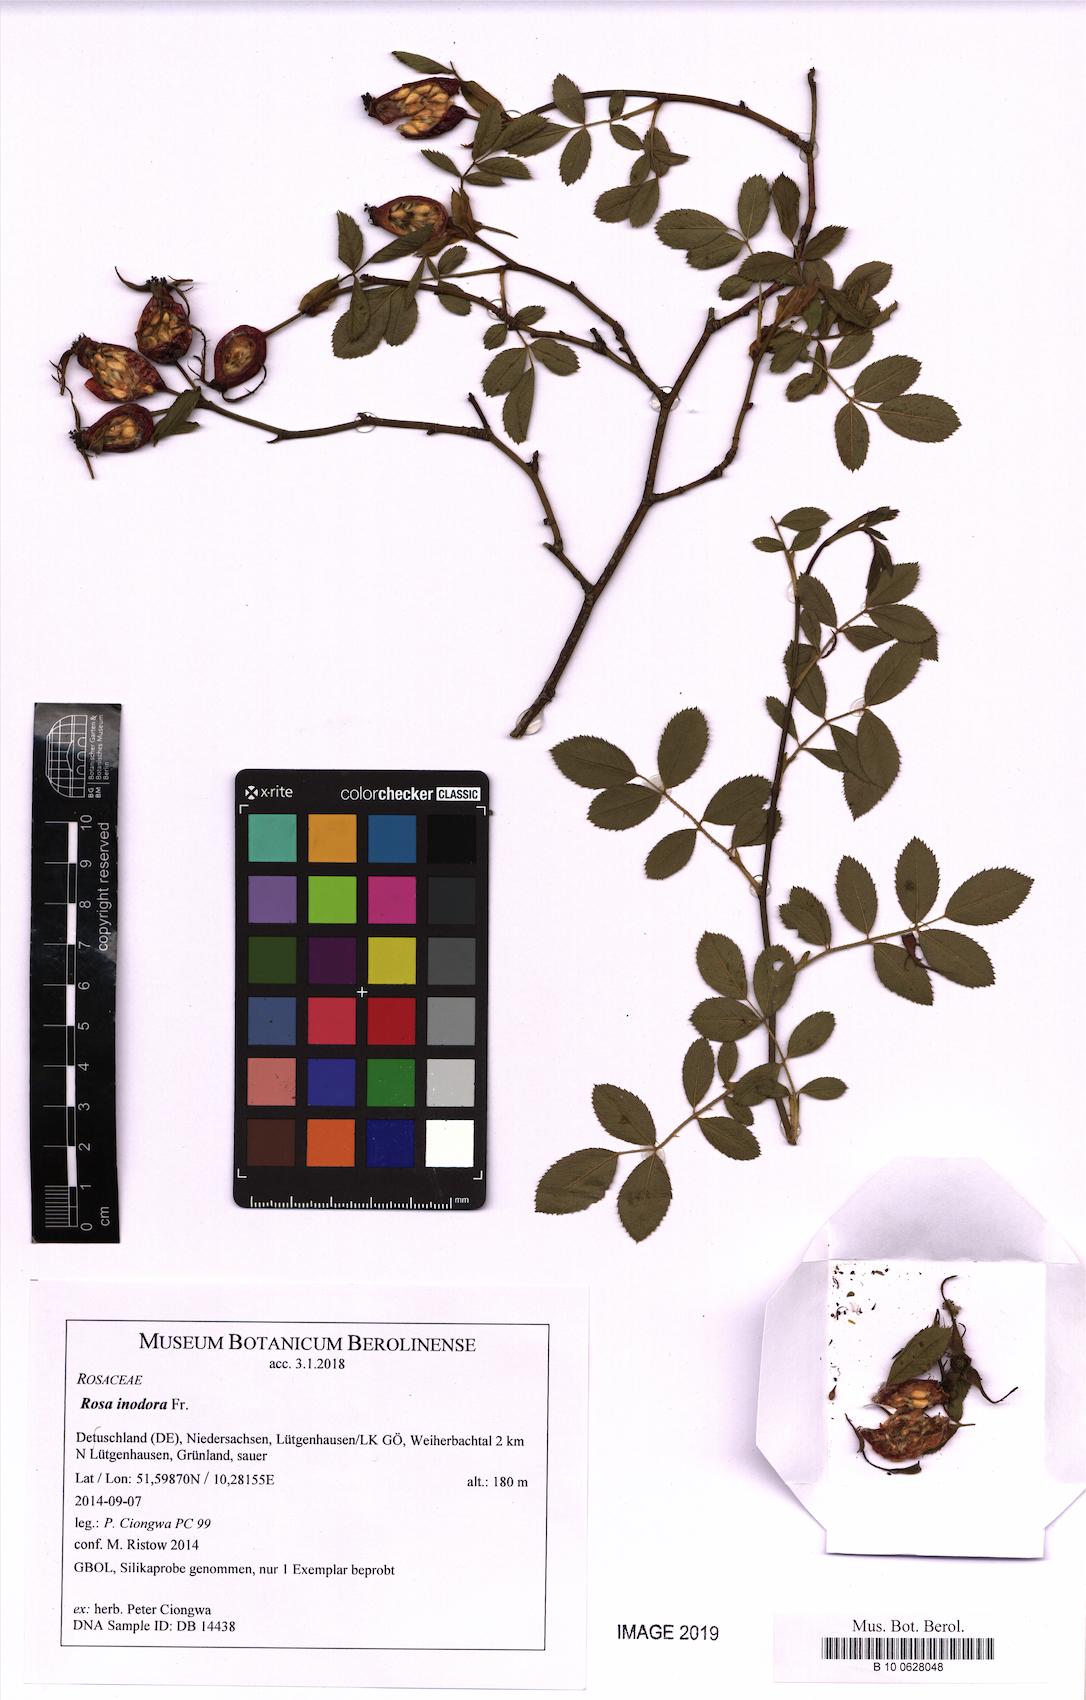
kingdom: Plantae
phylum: Tracheophyta
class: Magnoliopsida
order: Rosales
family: Rosaceae
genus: Rosa
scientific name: Rosa inodora
